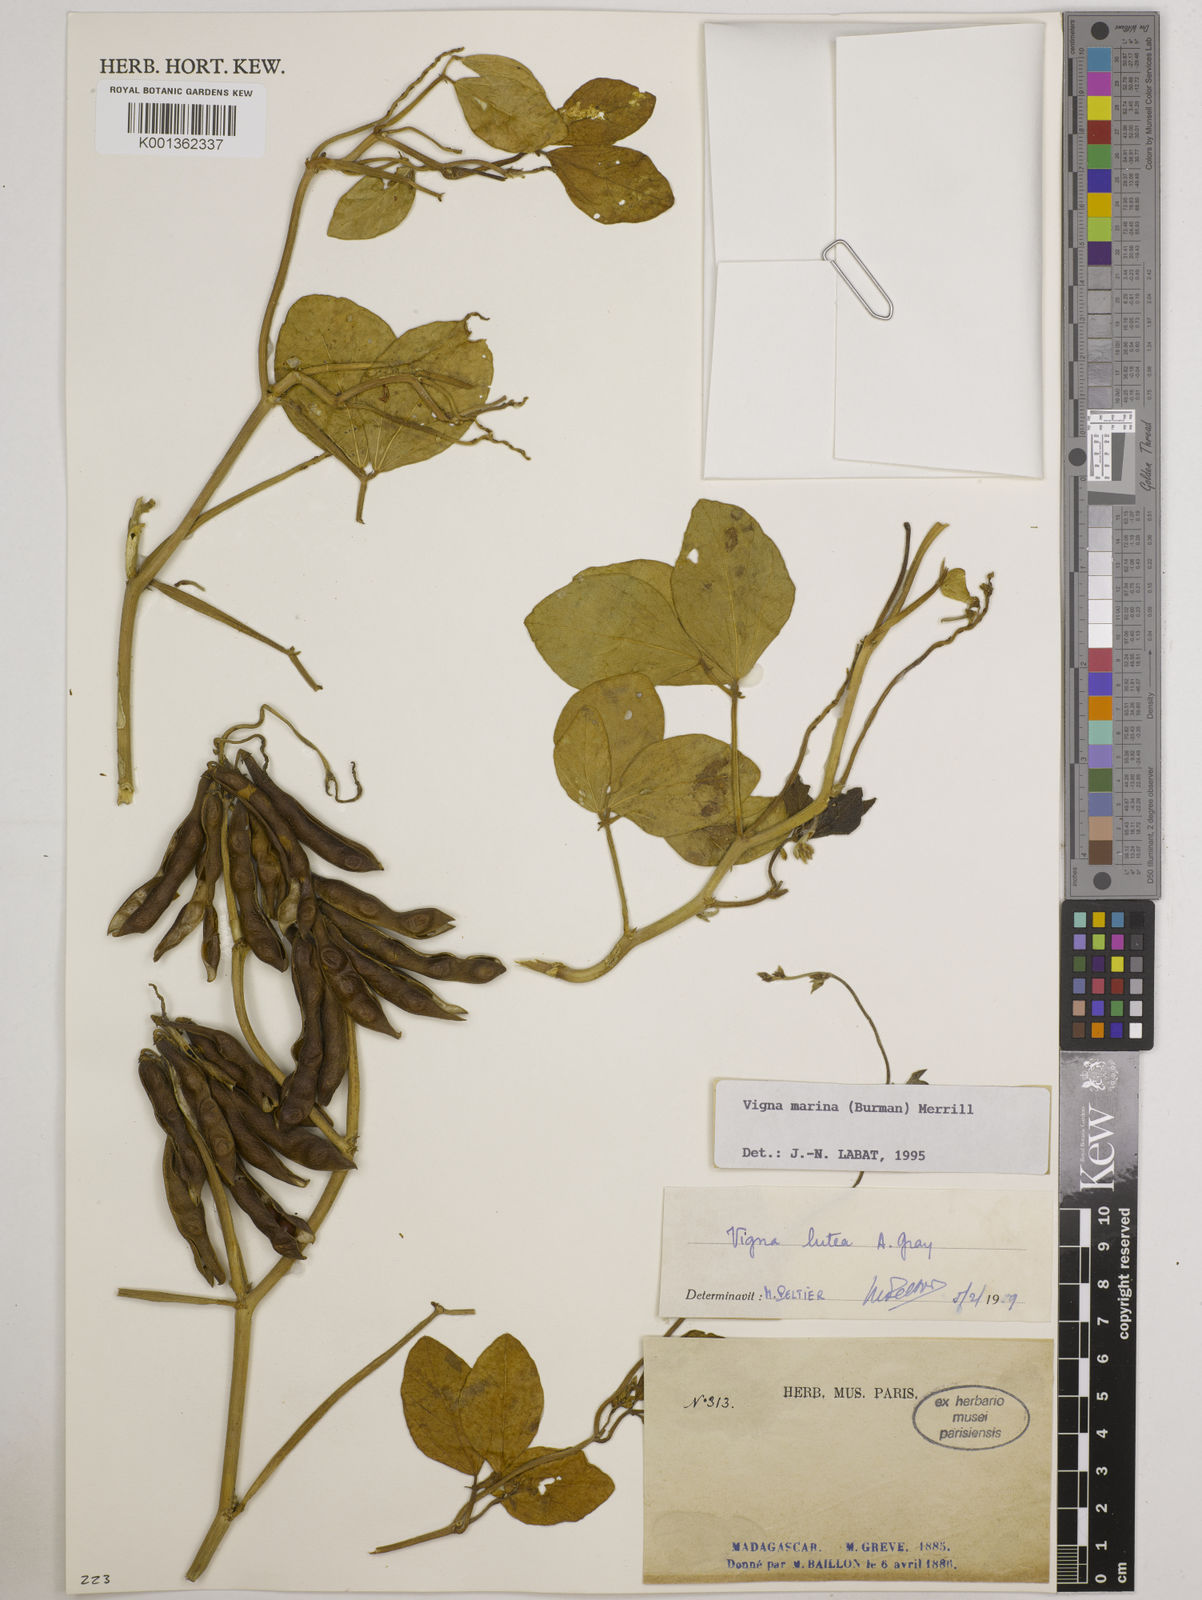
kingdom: Plantae
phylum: Tracheophyta
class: Magnoliopsida
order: Fabales
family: Fabaceae
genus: Vigna
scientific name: Vigna marina
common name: Dune-bean
